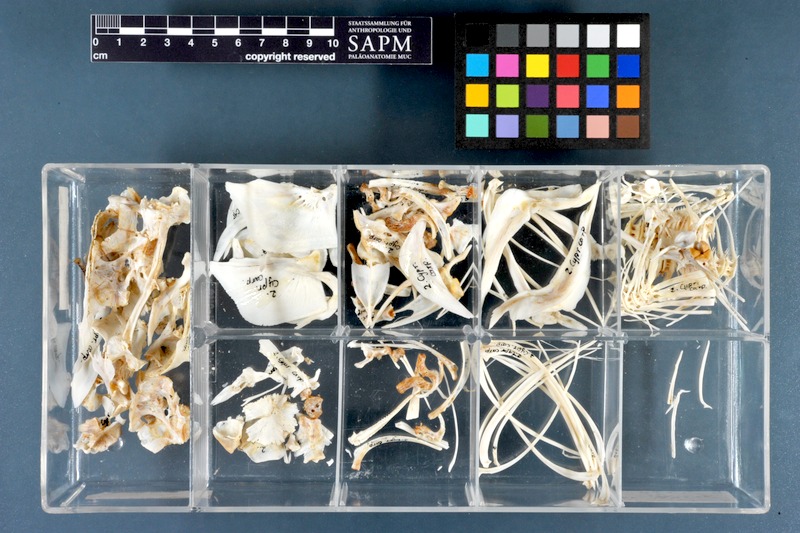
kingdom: Animalia
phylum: Chordata
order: Cypriniformes
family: Cyprinidae
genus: Cyprinus
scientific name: Cyprinus carpio
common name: Common carp
